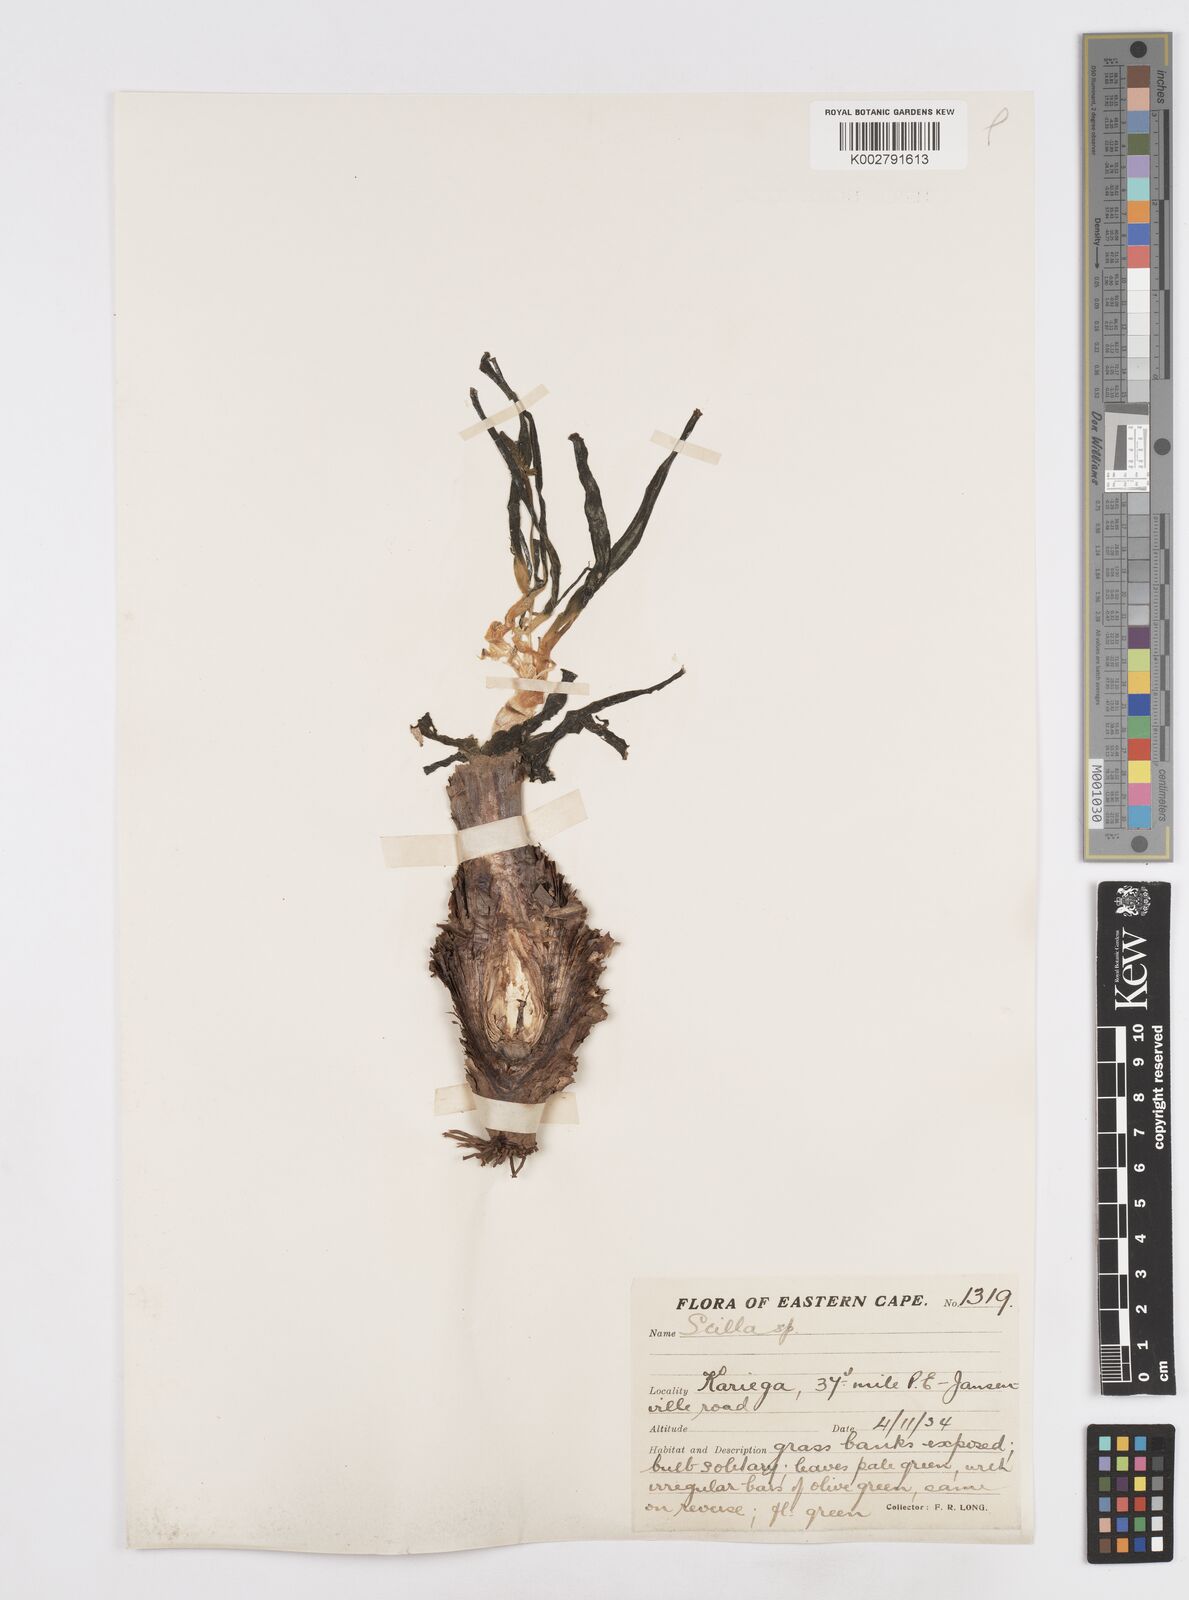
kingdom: Plantae
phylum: Tracheophyta
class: Liliopsida
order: Asparagales
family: Asparagaceae
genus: Scilla
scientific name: Scilla
